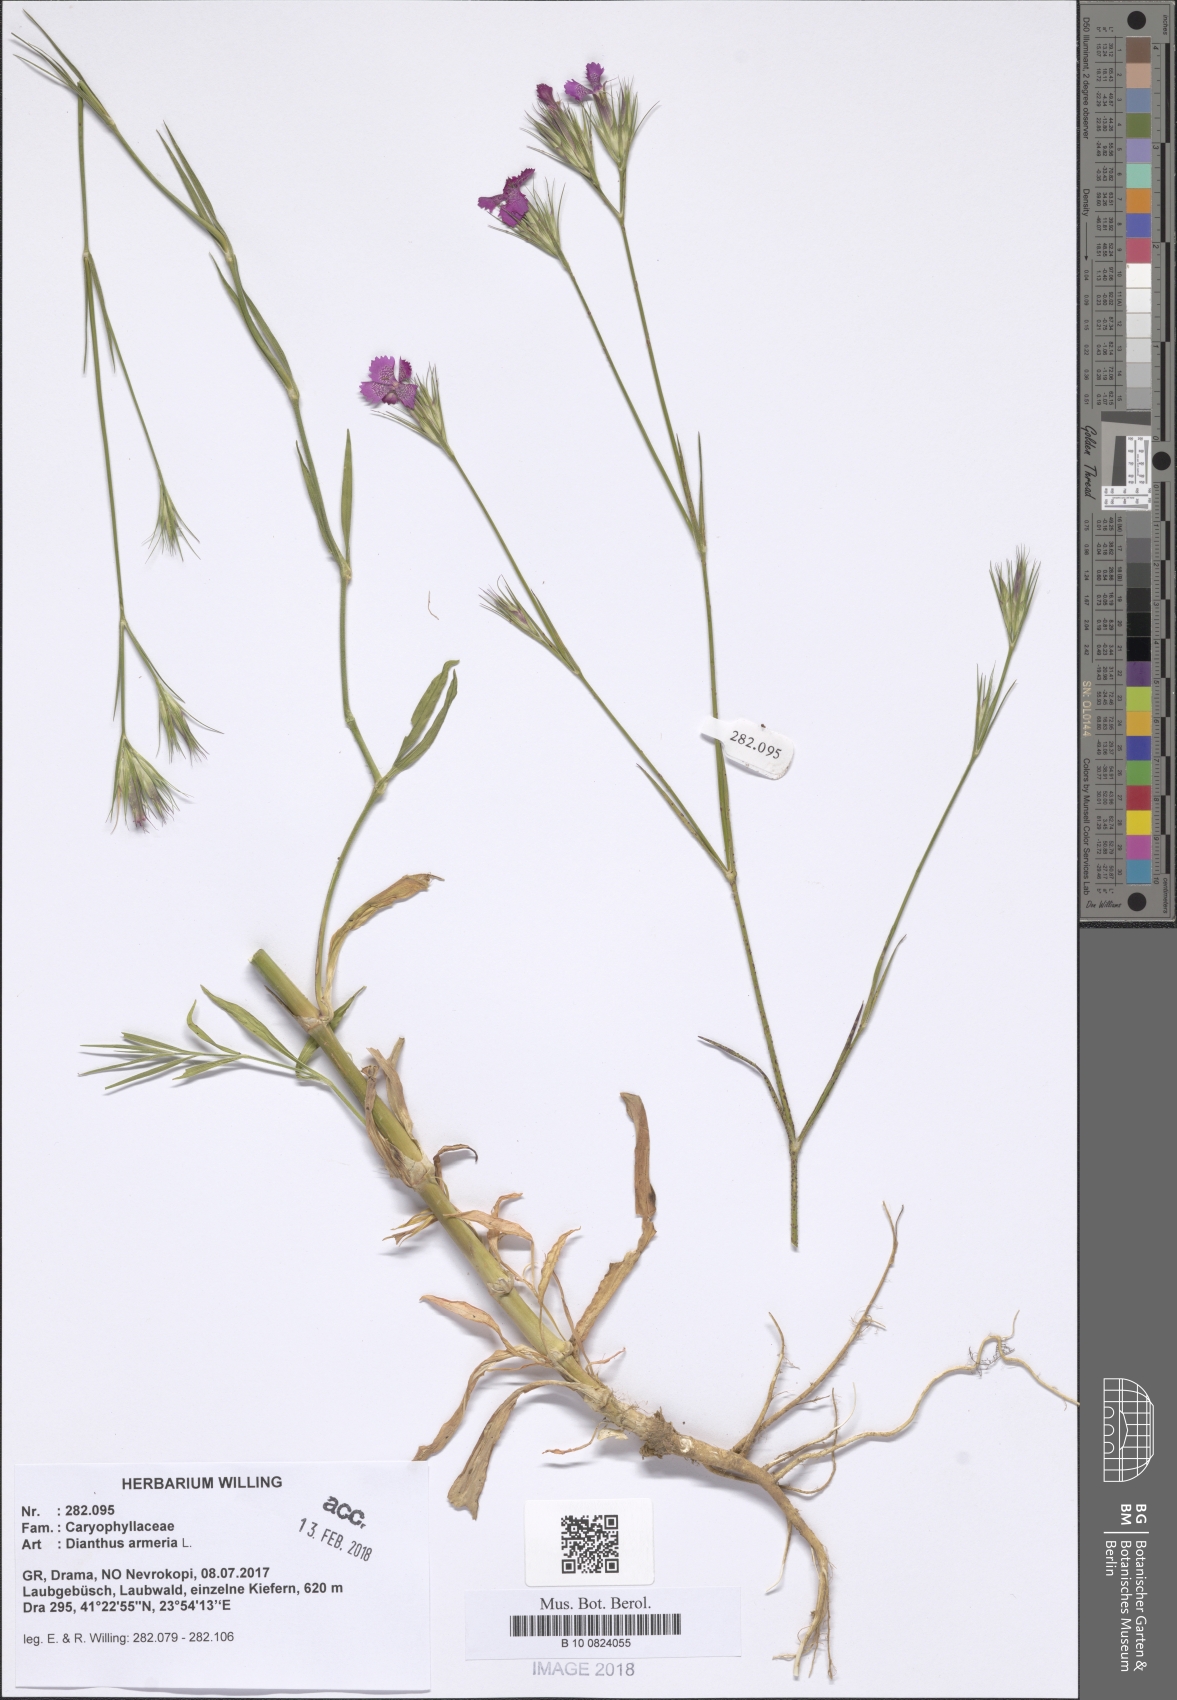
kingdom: Plantae
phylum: Tracheophyta
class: Magnoliopsida
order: Caryophyllales
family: Caryophyllaceae
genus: Dianthus
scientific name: Dianthus armeria
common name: Deptford pink
